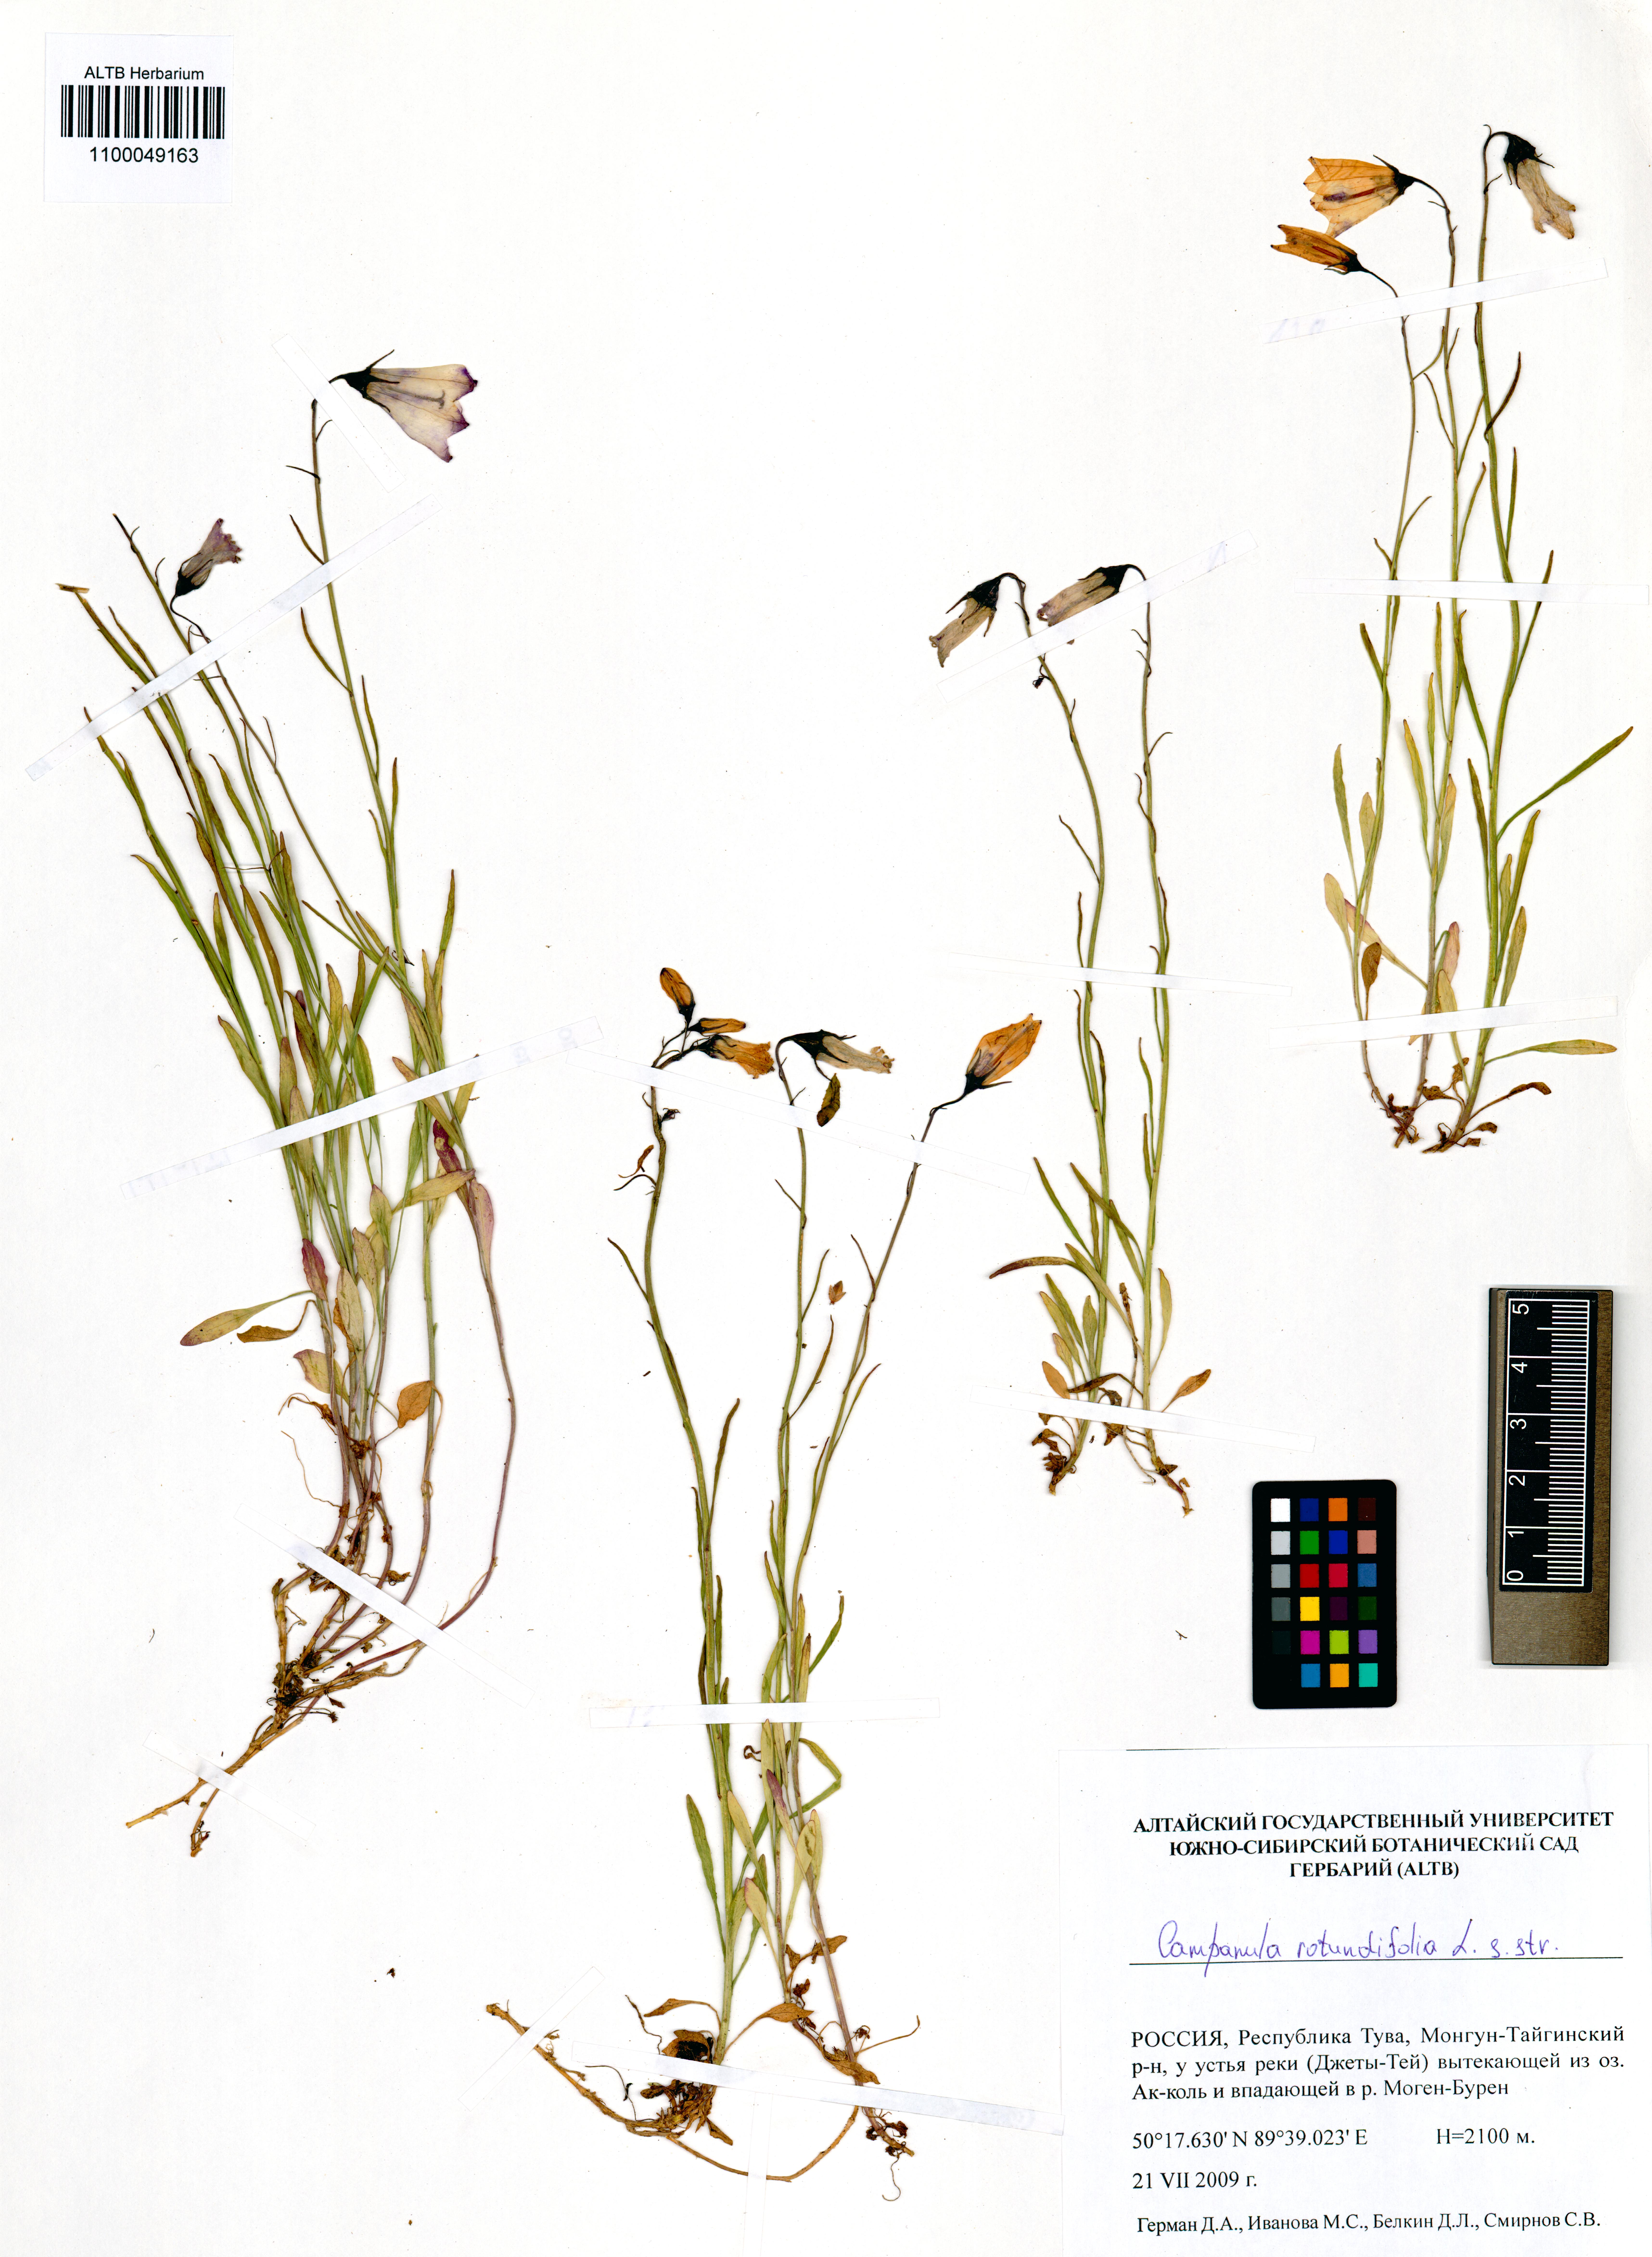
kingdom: Plantae
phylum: Tracheophyta
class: Magnoliopsida
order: Asterales
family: Campanulaceae
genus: Campanula
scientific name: Campanula rotundifolia
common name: Harebell
